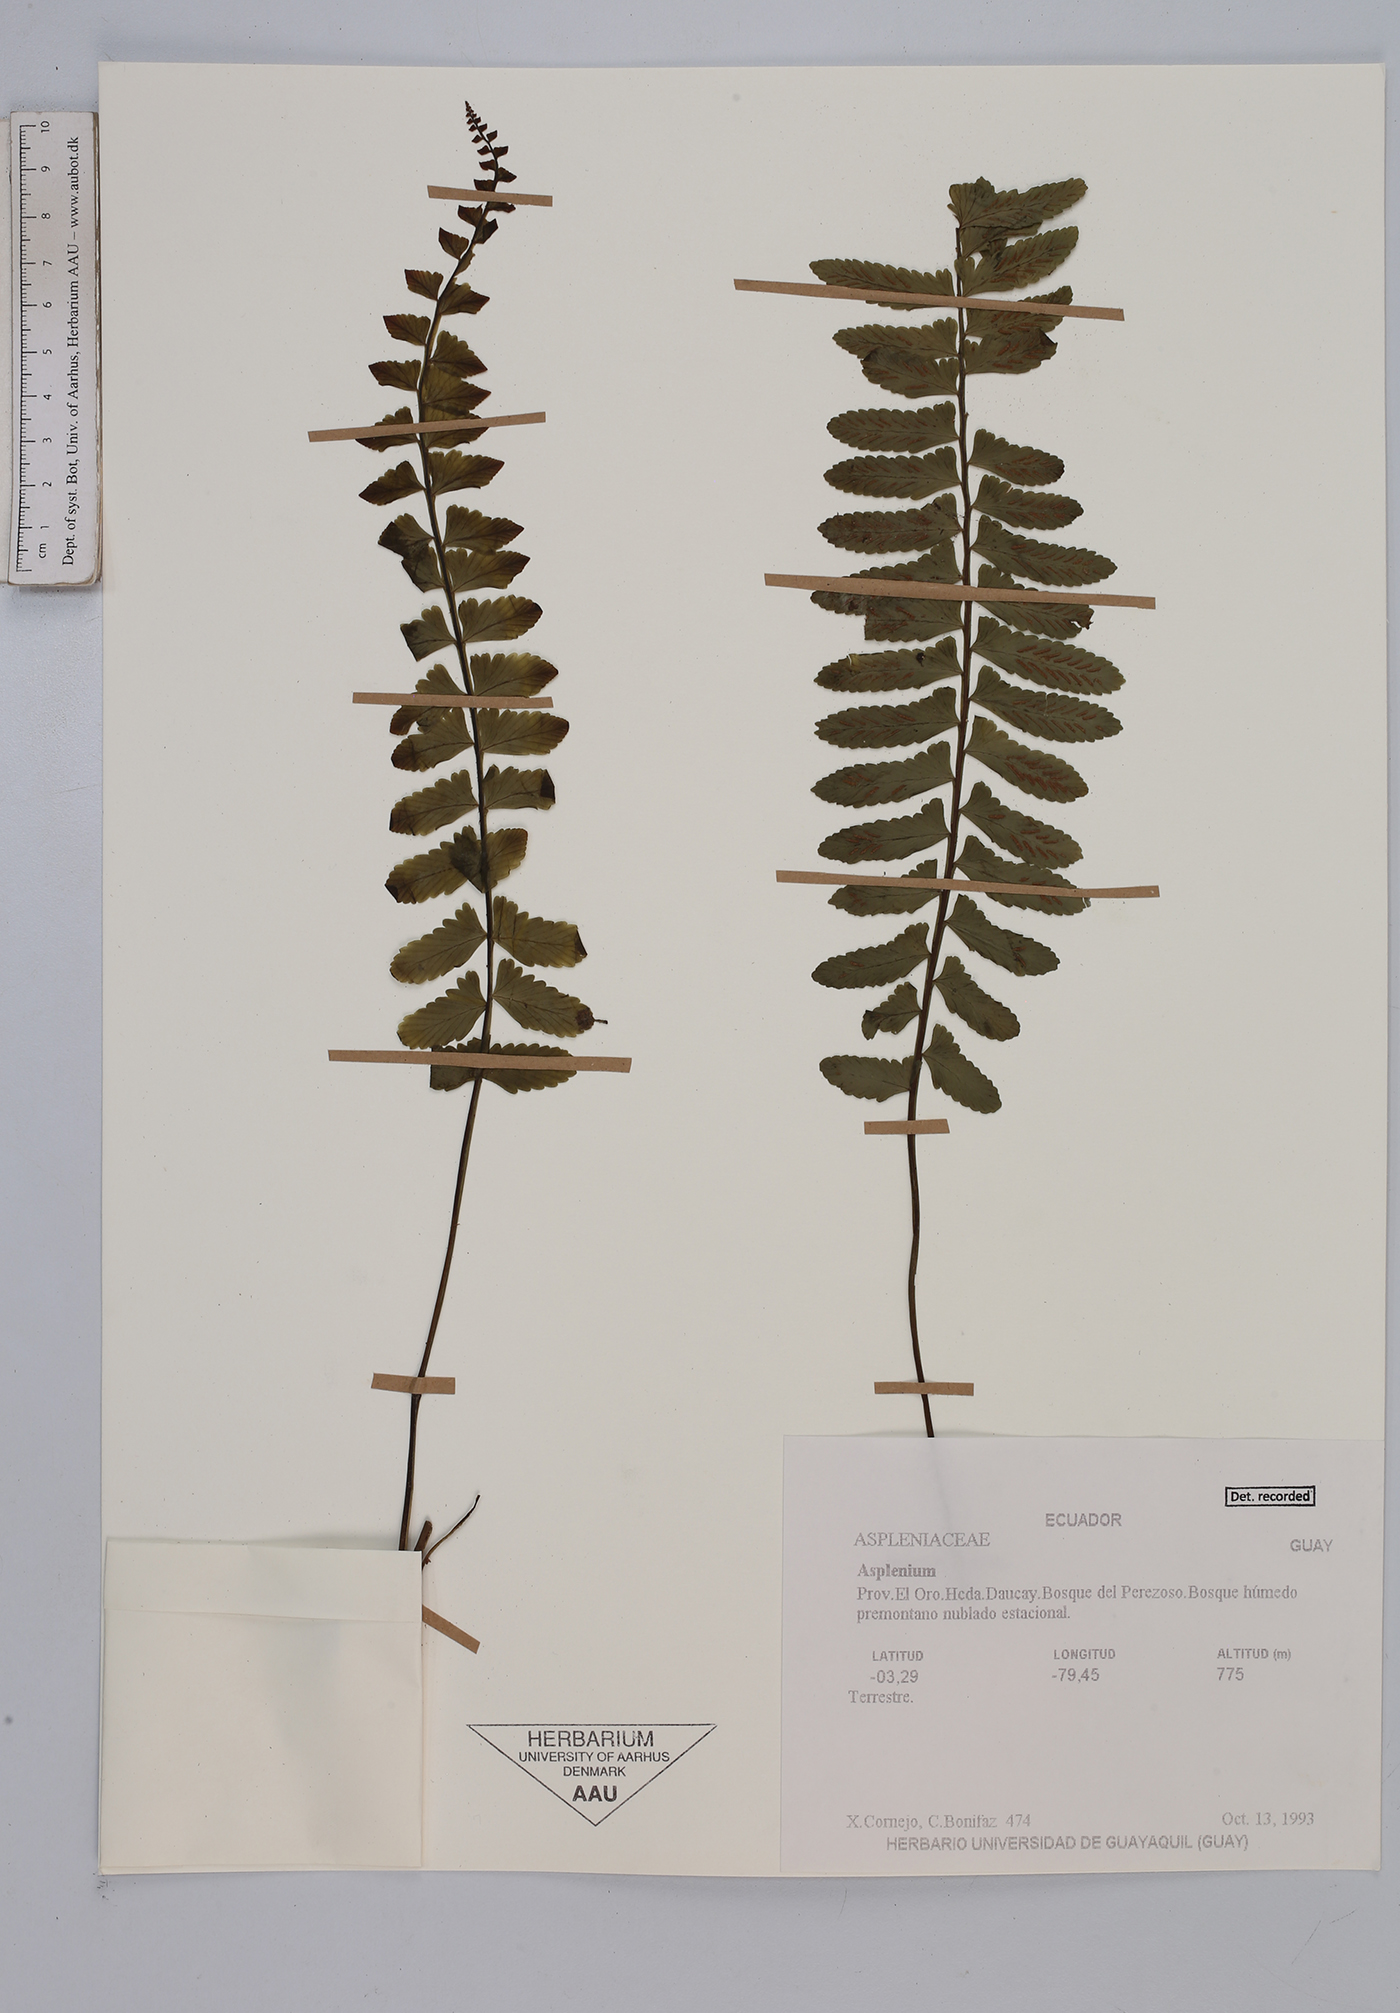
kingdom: Plantae
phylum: Tracheophyta
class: Polypodiopsida
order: Polypodiales
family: Aspleniaceae
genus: Asplenium
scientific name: Asplenium
